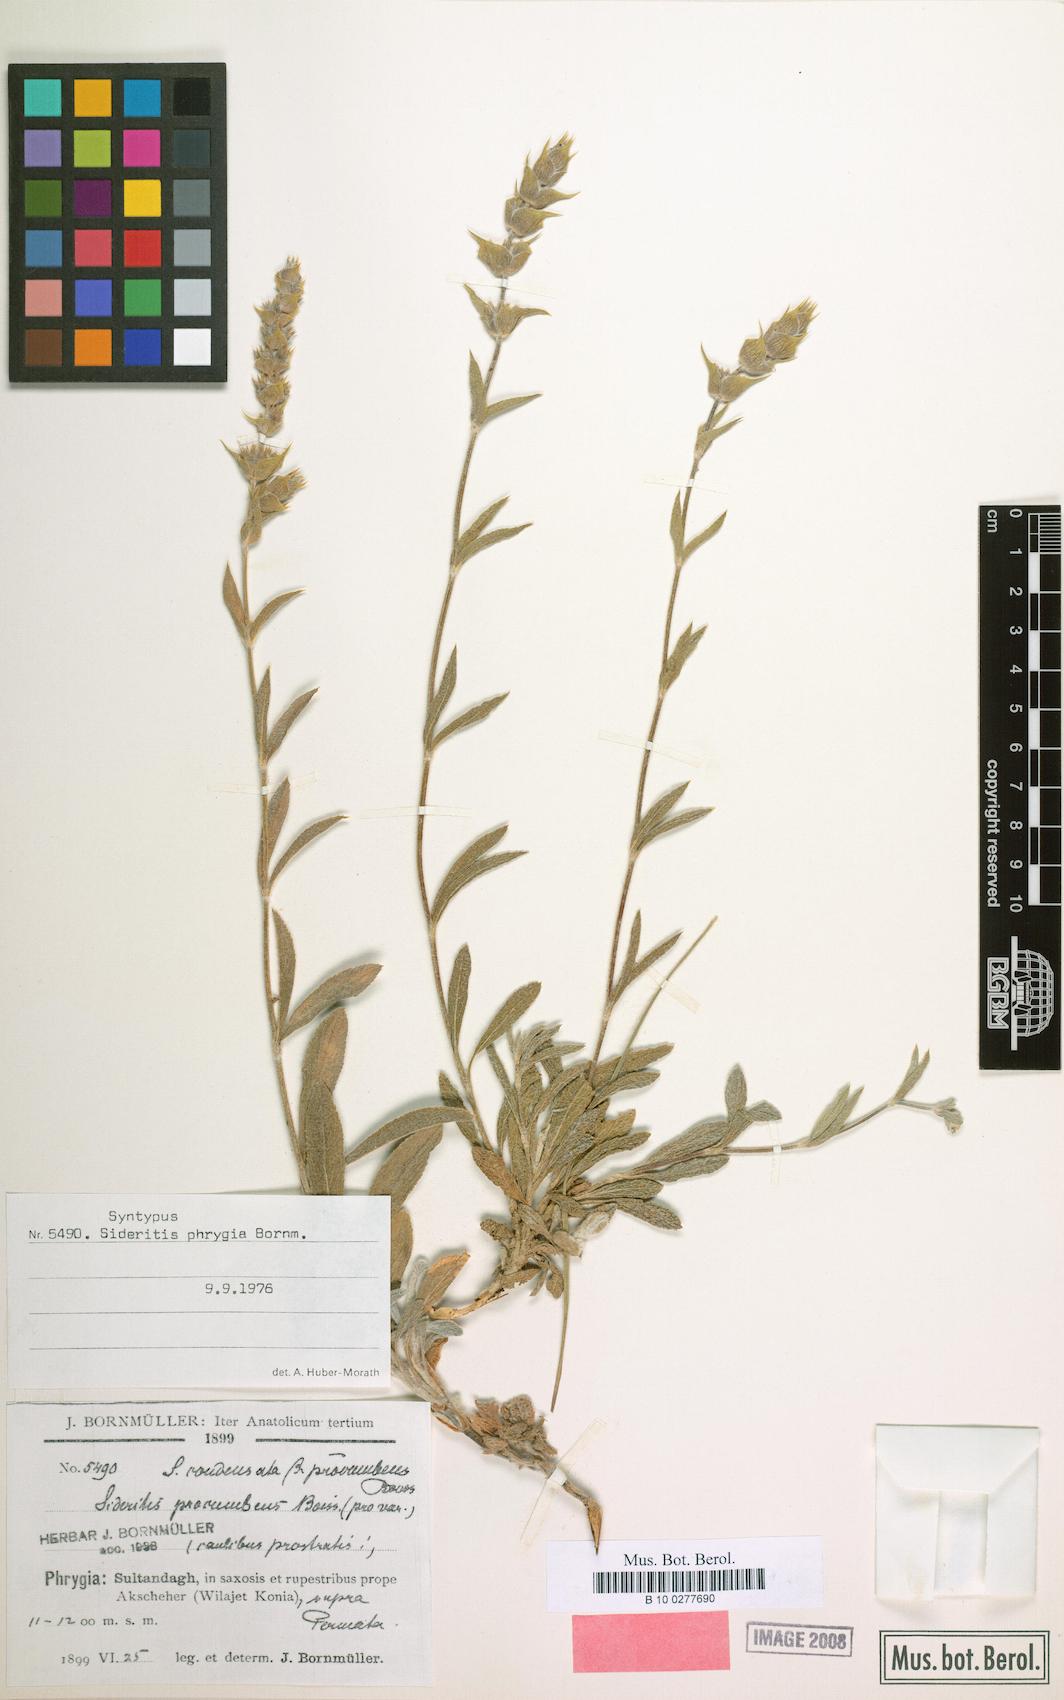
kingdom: Plantae
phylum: Tracheophyta
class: Magnoliopsida
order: Lamiales
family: Lamiaceae
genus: Sideritis
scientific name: Sideritis phrygia
